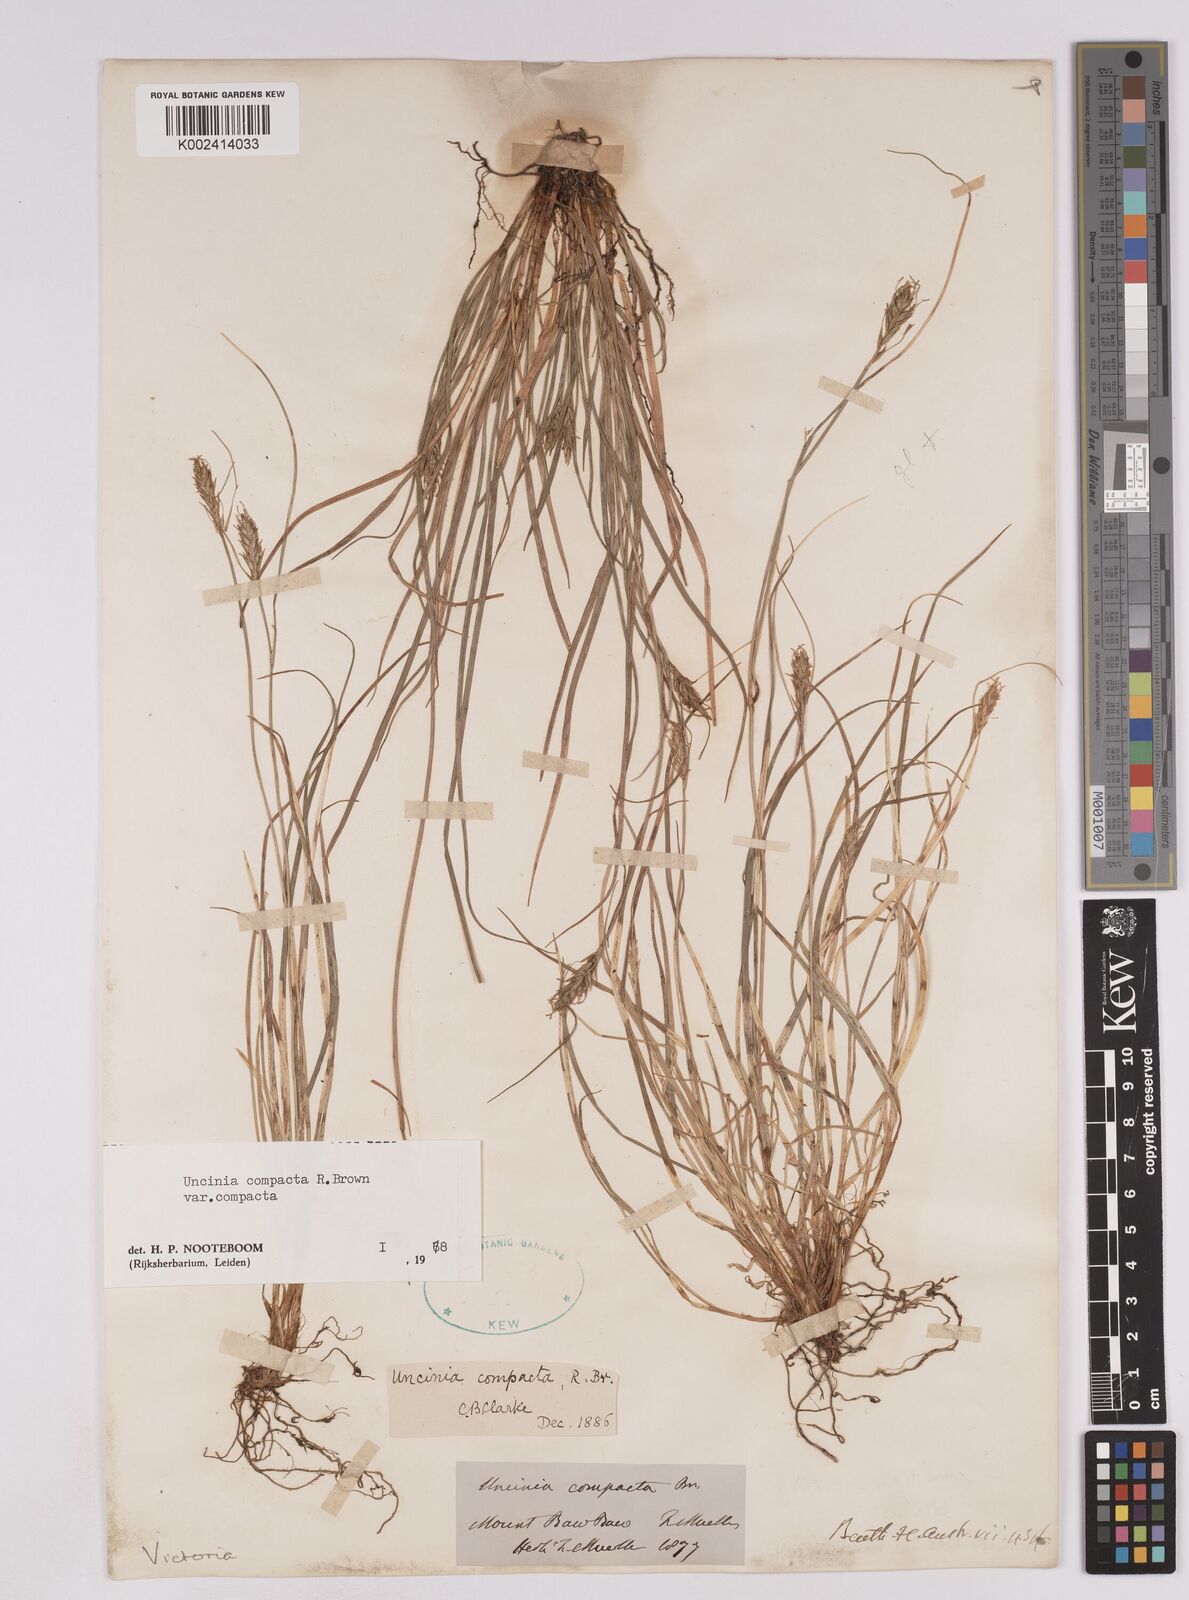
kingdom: Plantae
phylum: Tracheophyta
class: Liliopsida
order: Poales
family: Cyperaceae
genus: Carex
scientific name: Carex austrocompacta
